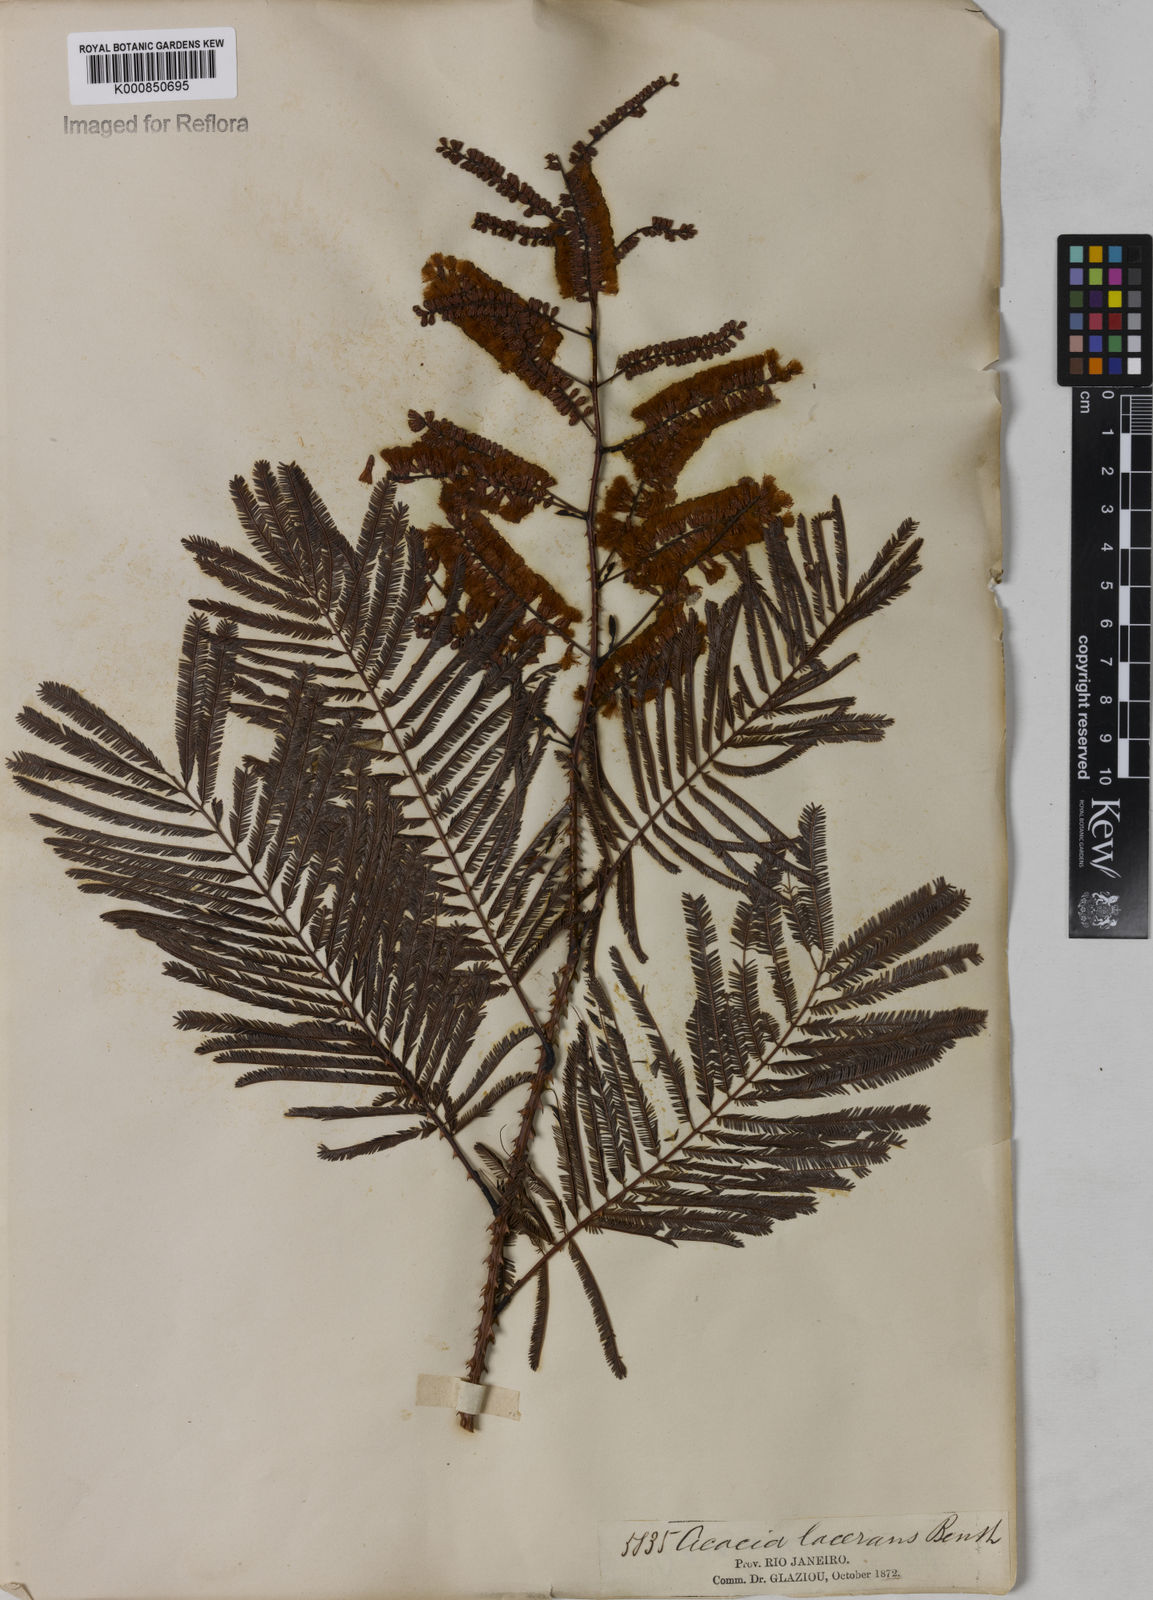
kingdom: Plantae
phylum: Tracheophyta
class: Magnoliopsida
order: Fabales
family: Fabaceae
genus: Senegalia
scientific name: Senegalia lacerans
